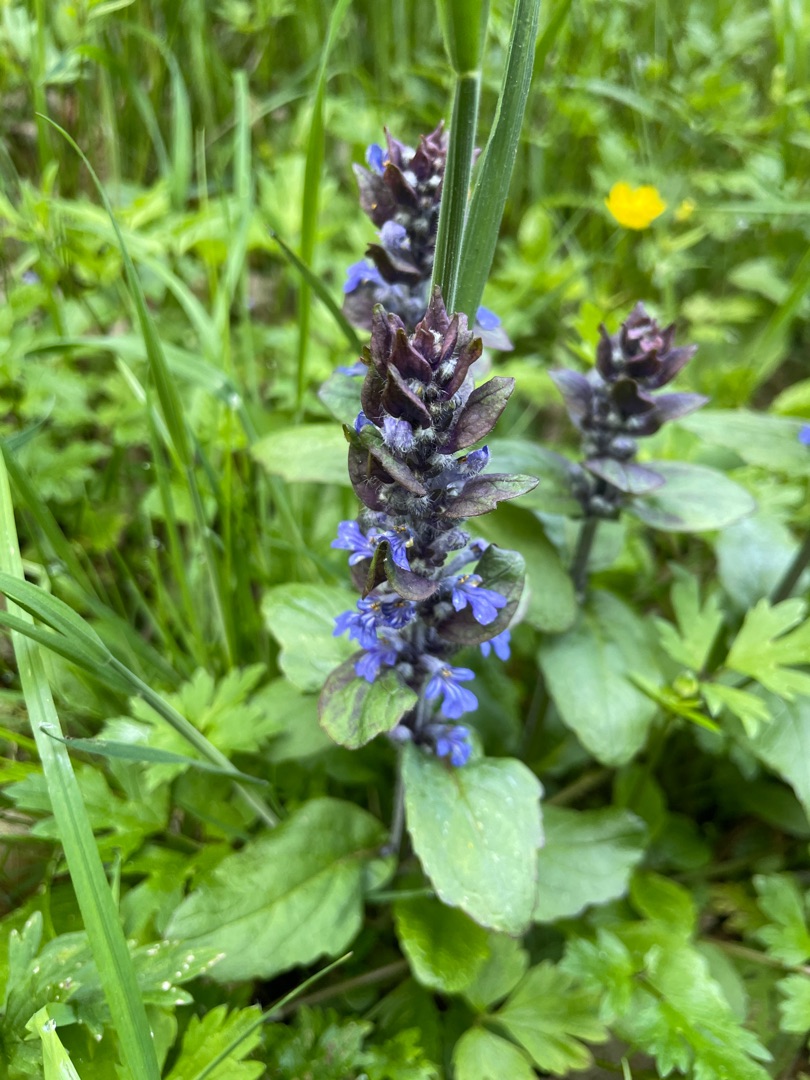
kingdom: Plantae
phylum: Tracheophyta
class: Magnoliopsida
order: Lamiales
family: Lamiaceae
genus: Ajuga
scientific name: Ajuga reptans
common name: Krybende læbeløs
